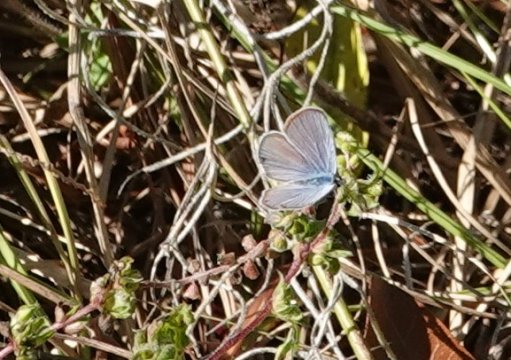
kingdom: Animalia
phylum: Arthropoda
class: Insecta
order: Lepidoptera
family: Lycaenidae
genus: Hemiargus
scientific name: Hemiargus ceraunus
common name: Ceraunus Blue
